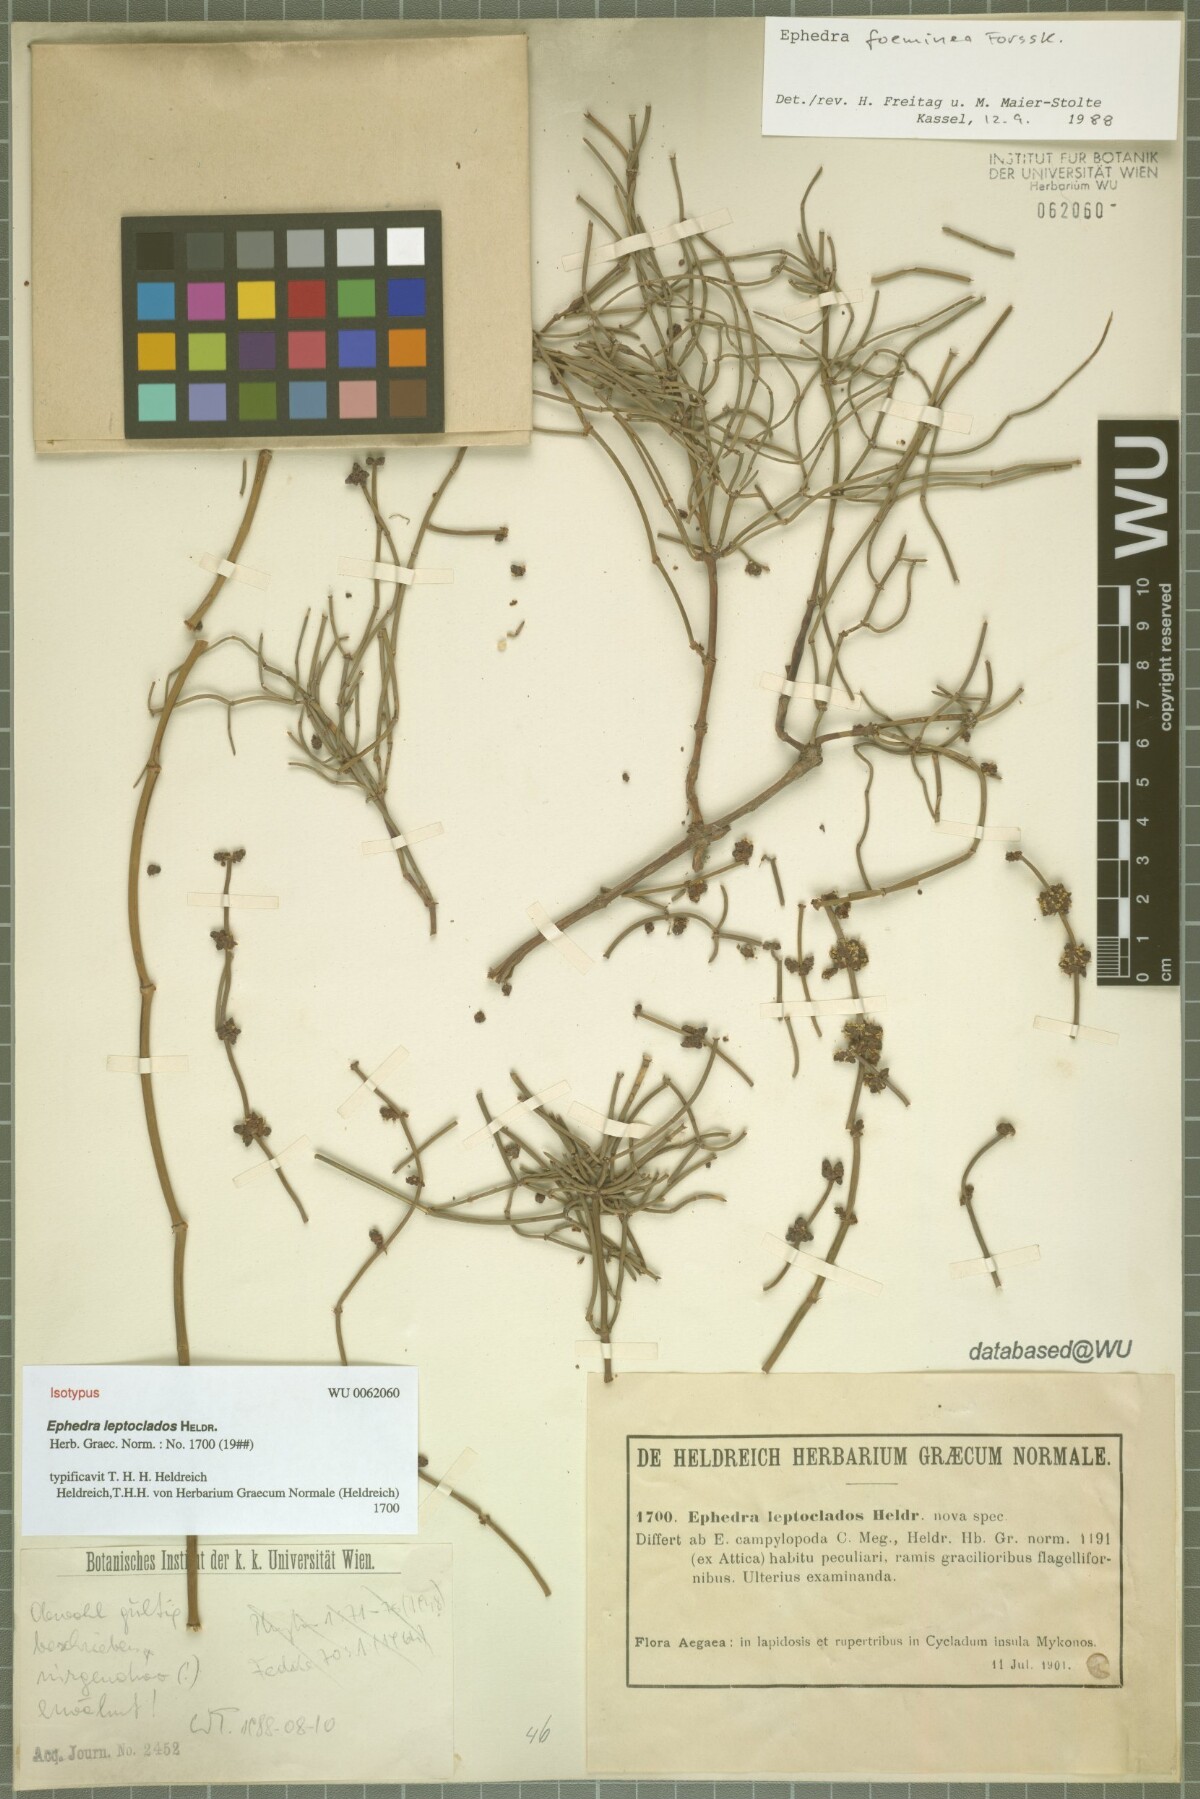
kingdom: Plantae
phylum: Tracheophyta
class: Gnetopsida
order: Ephedrales
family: Ephedraceae
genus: Ephedra
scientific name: Ephedra
